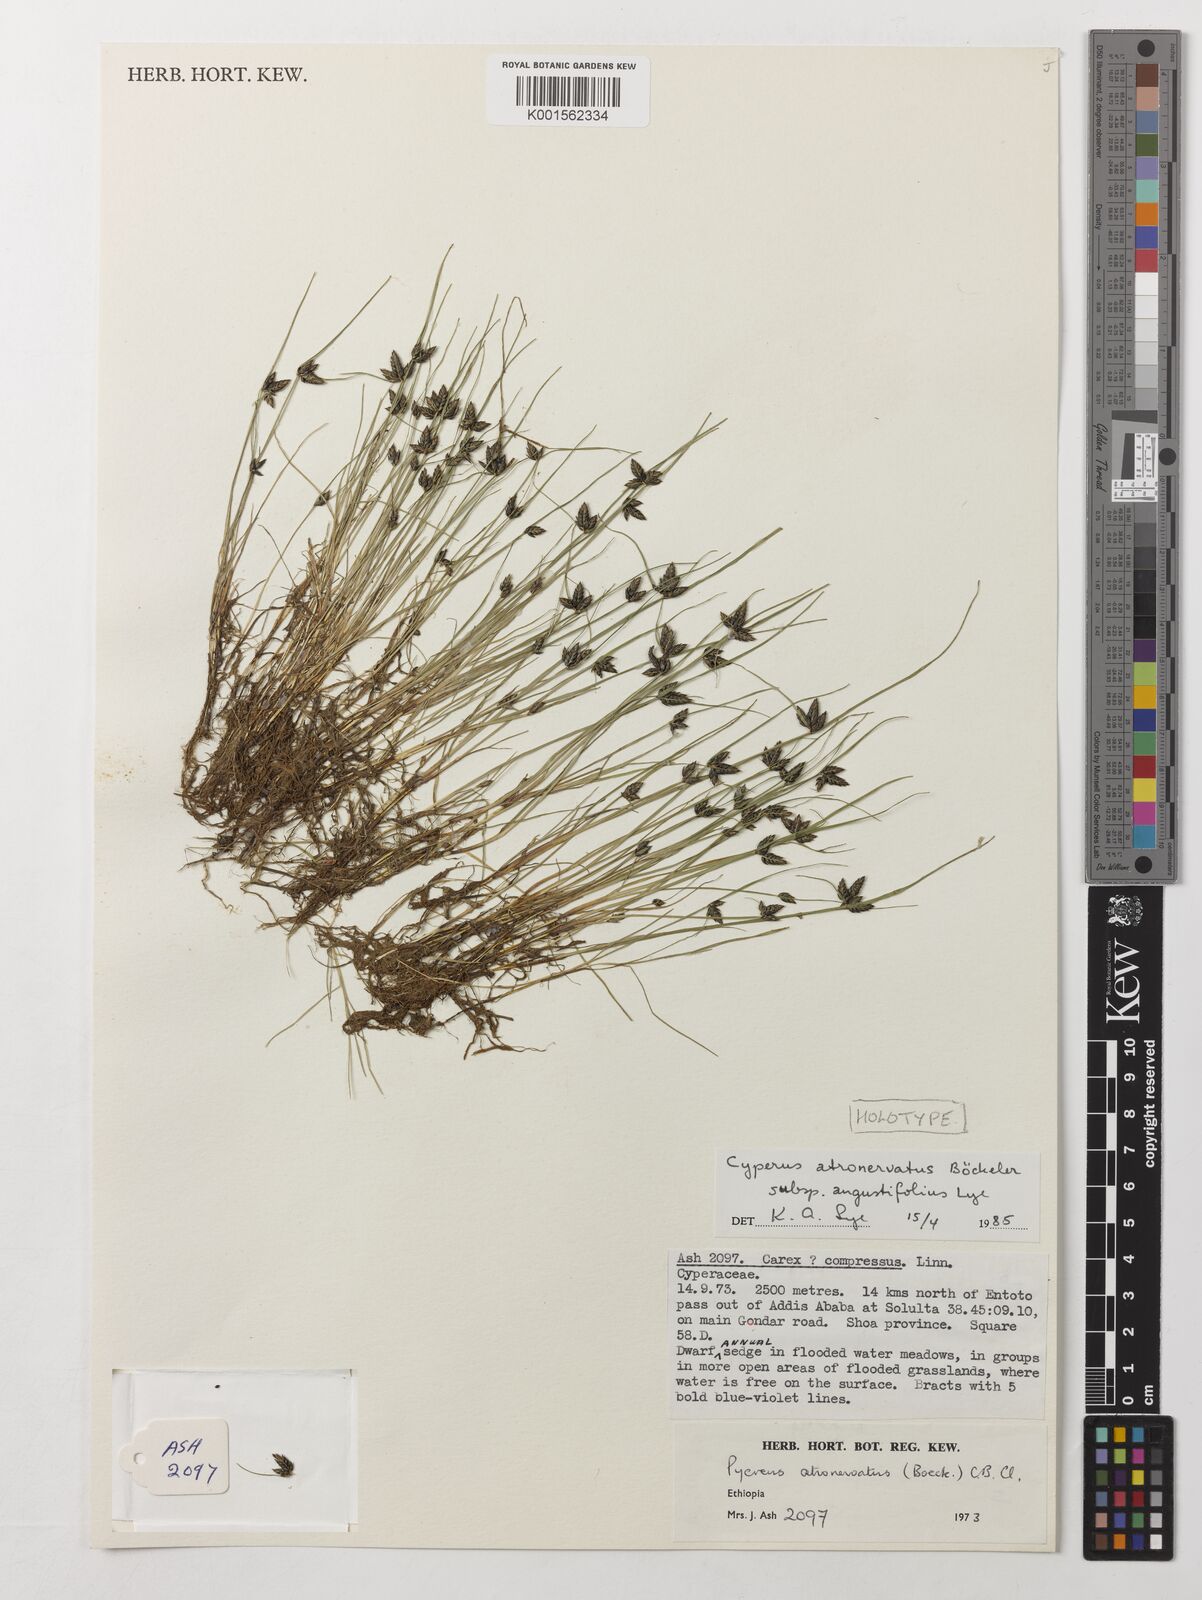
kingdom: Plantae
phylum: Tracheophyta
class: Liliopsida
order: Poales
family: Cyperaceae
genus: Cyperus
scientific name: Cyperus atronervatus
